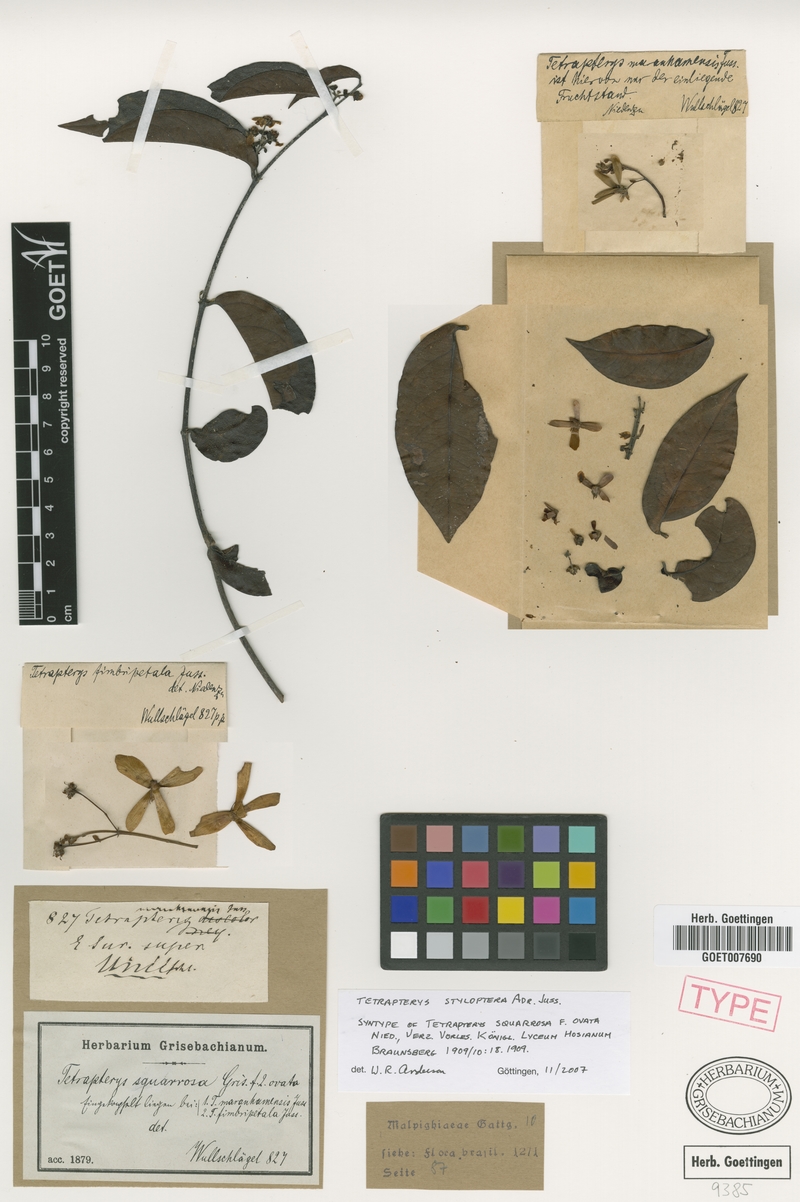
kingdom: Plantae
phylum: Tracheophyta
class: Magnoliopsida
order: Malpighiales
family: Malpighiaceae
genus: Glicophyllum
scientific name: Glicophyllum stylopterum
